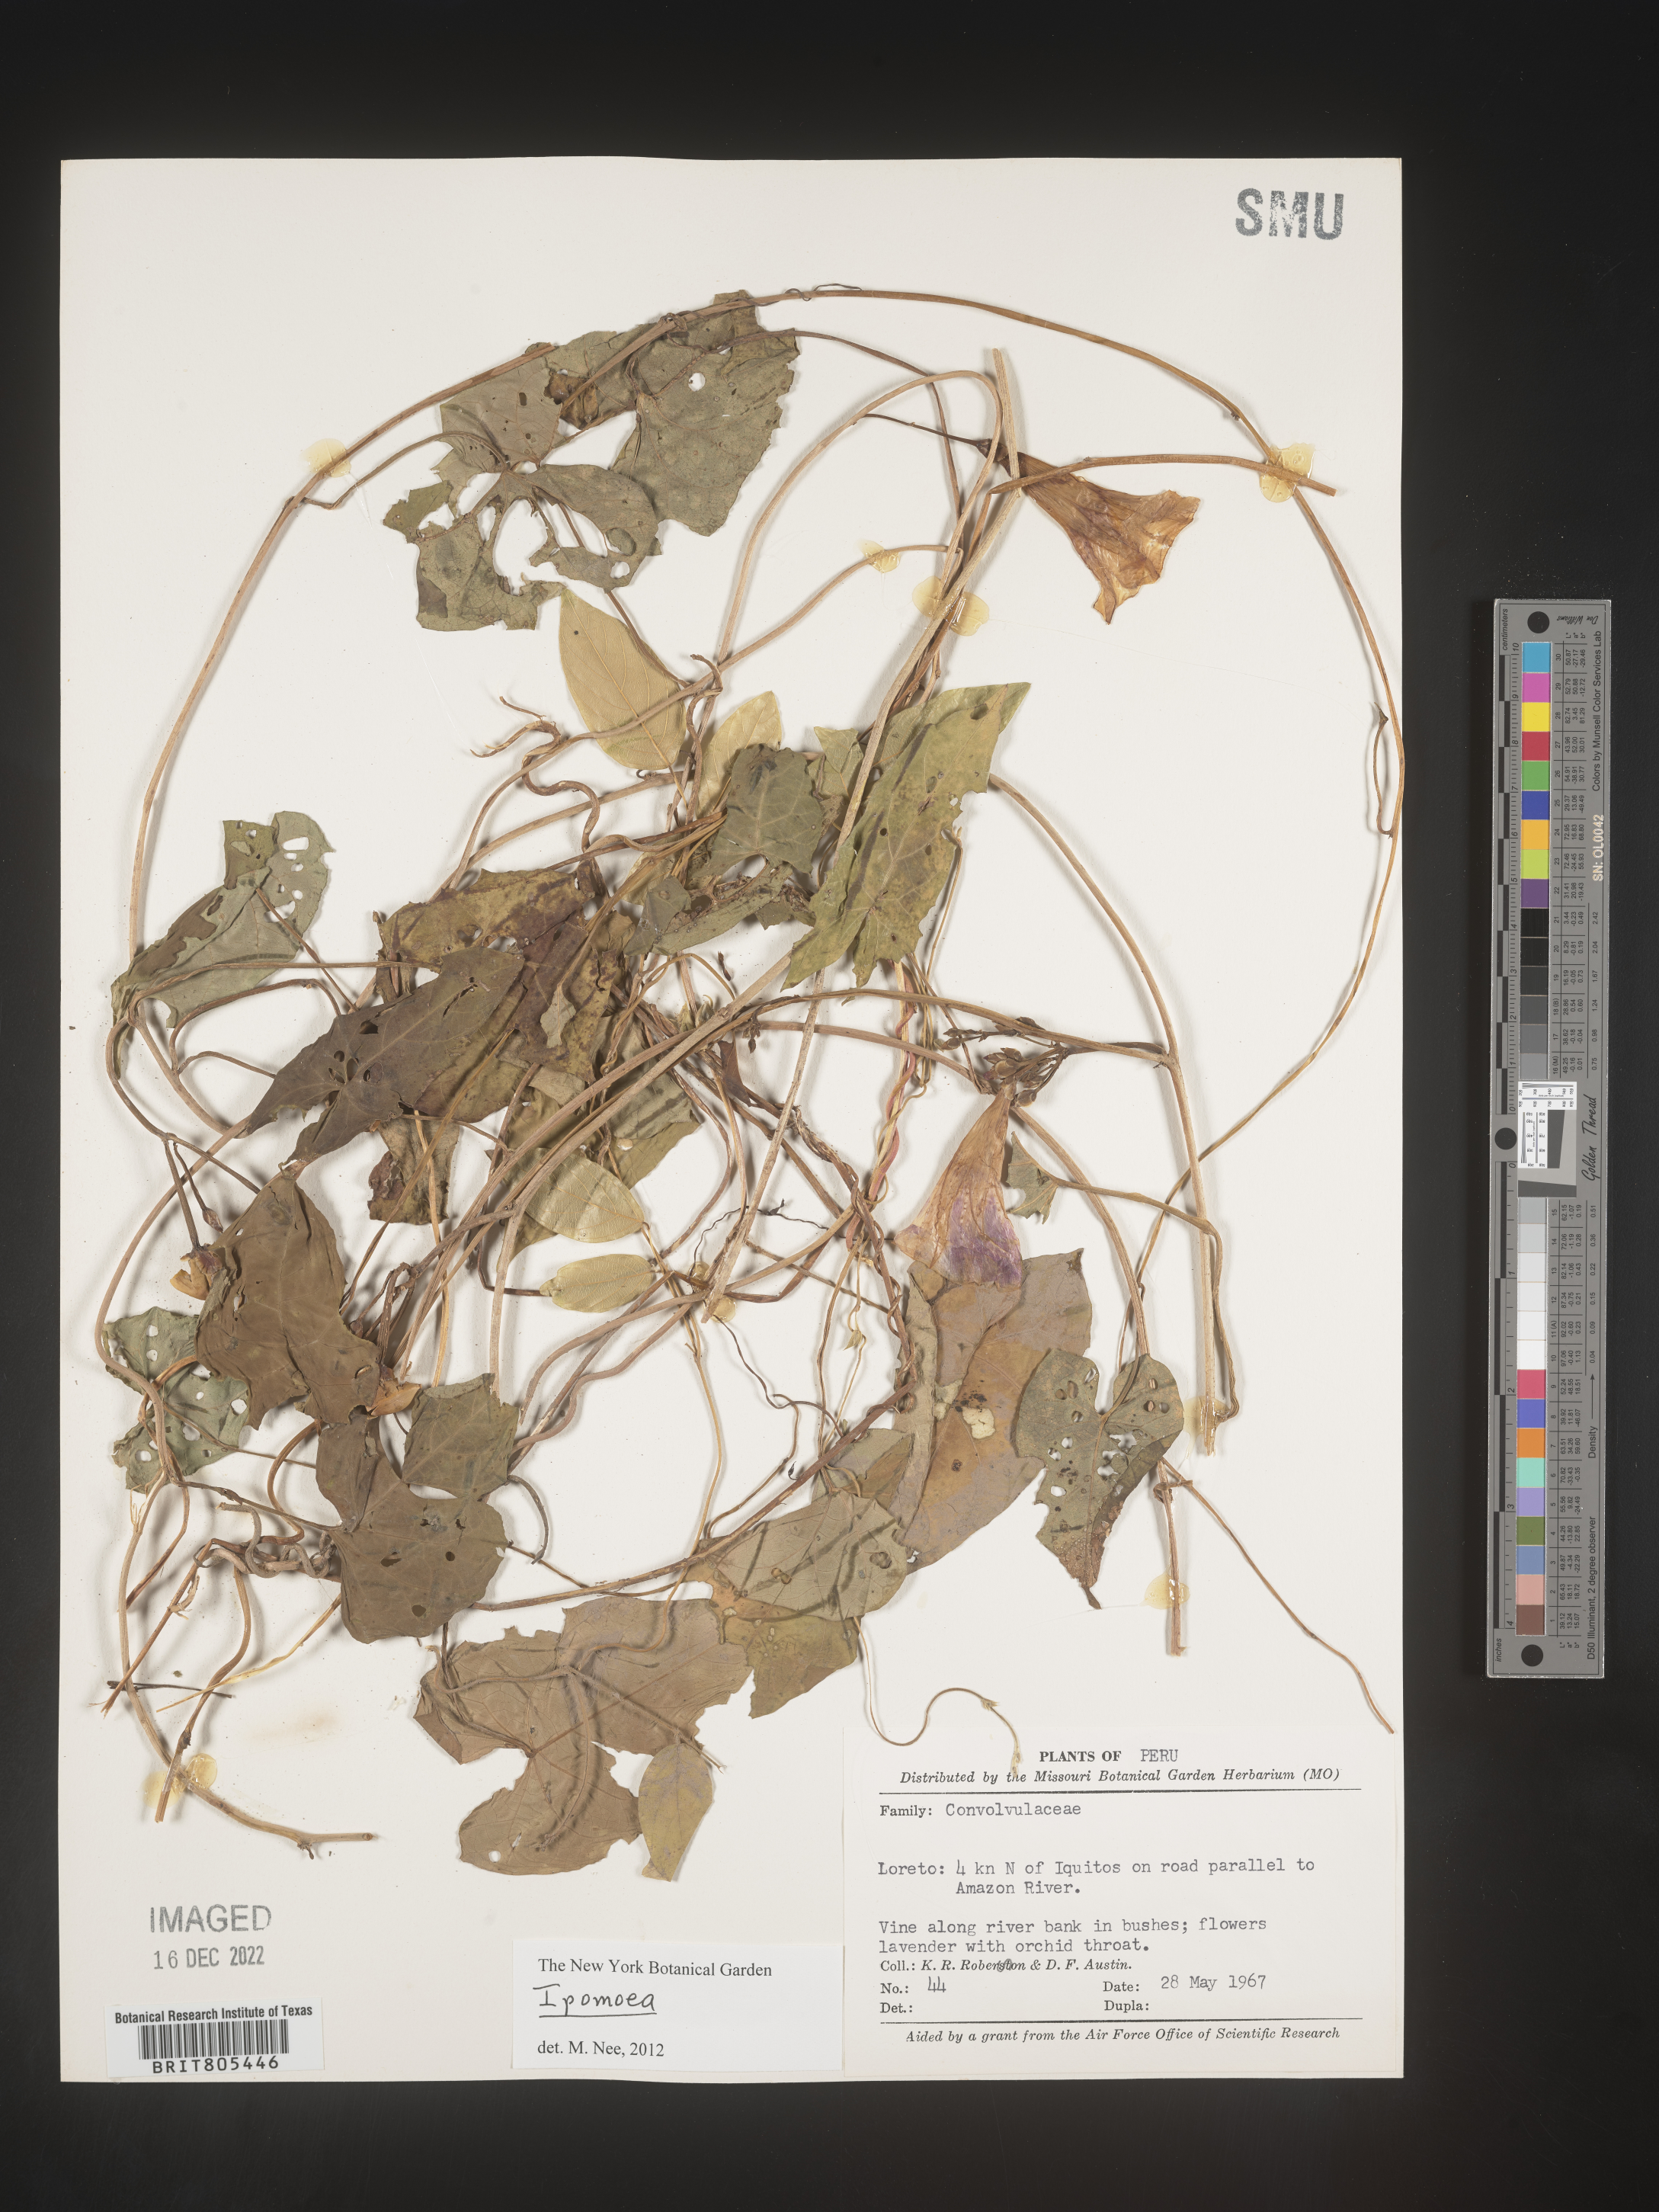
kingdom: Plantae
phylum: Tracheophyta
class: Magnoliopsida
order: Solanales
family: Convolvulaceae
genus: Ipomoea
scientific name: Ipomoea
